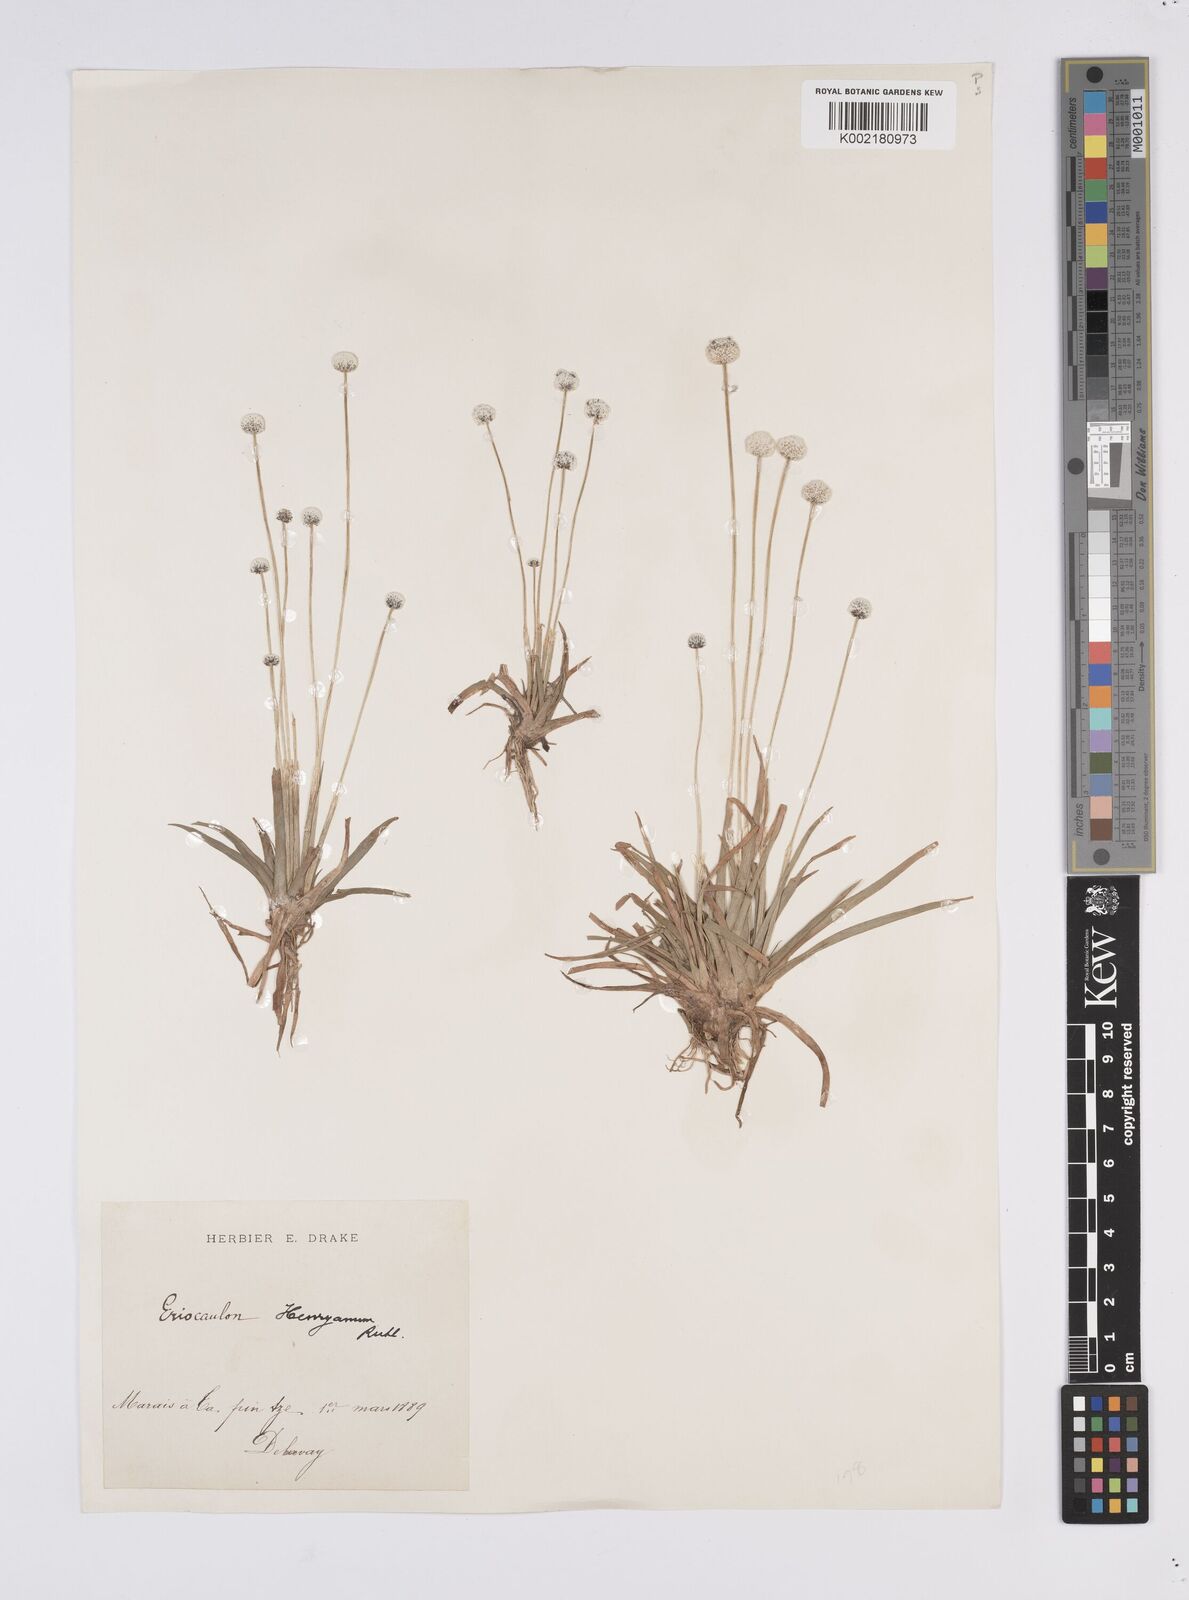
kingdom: Plantae
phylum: Tracheophyta
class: Liliopsida
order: Poales
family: Eriocaulaceae
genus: Eriocaulon
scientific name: Eriocaulon henryanum
